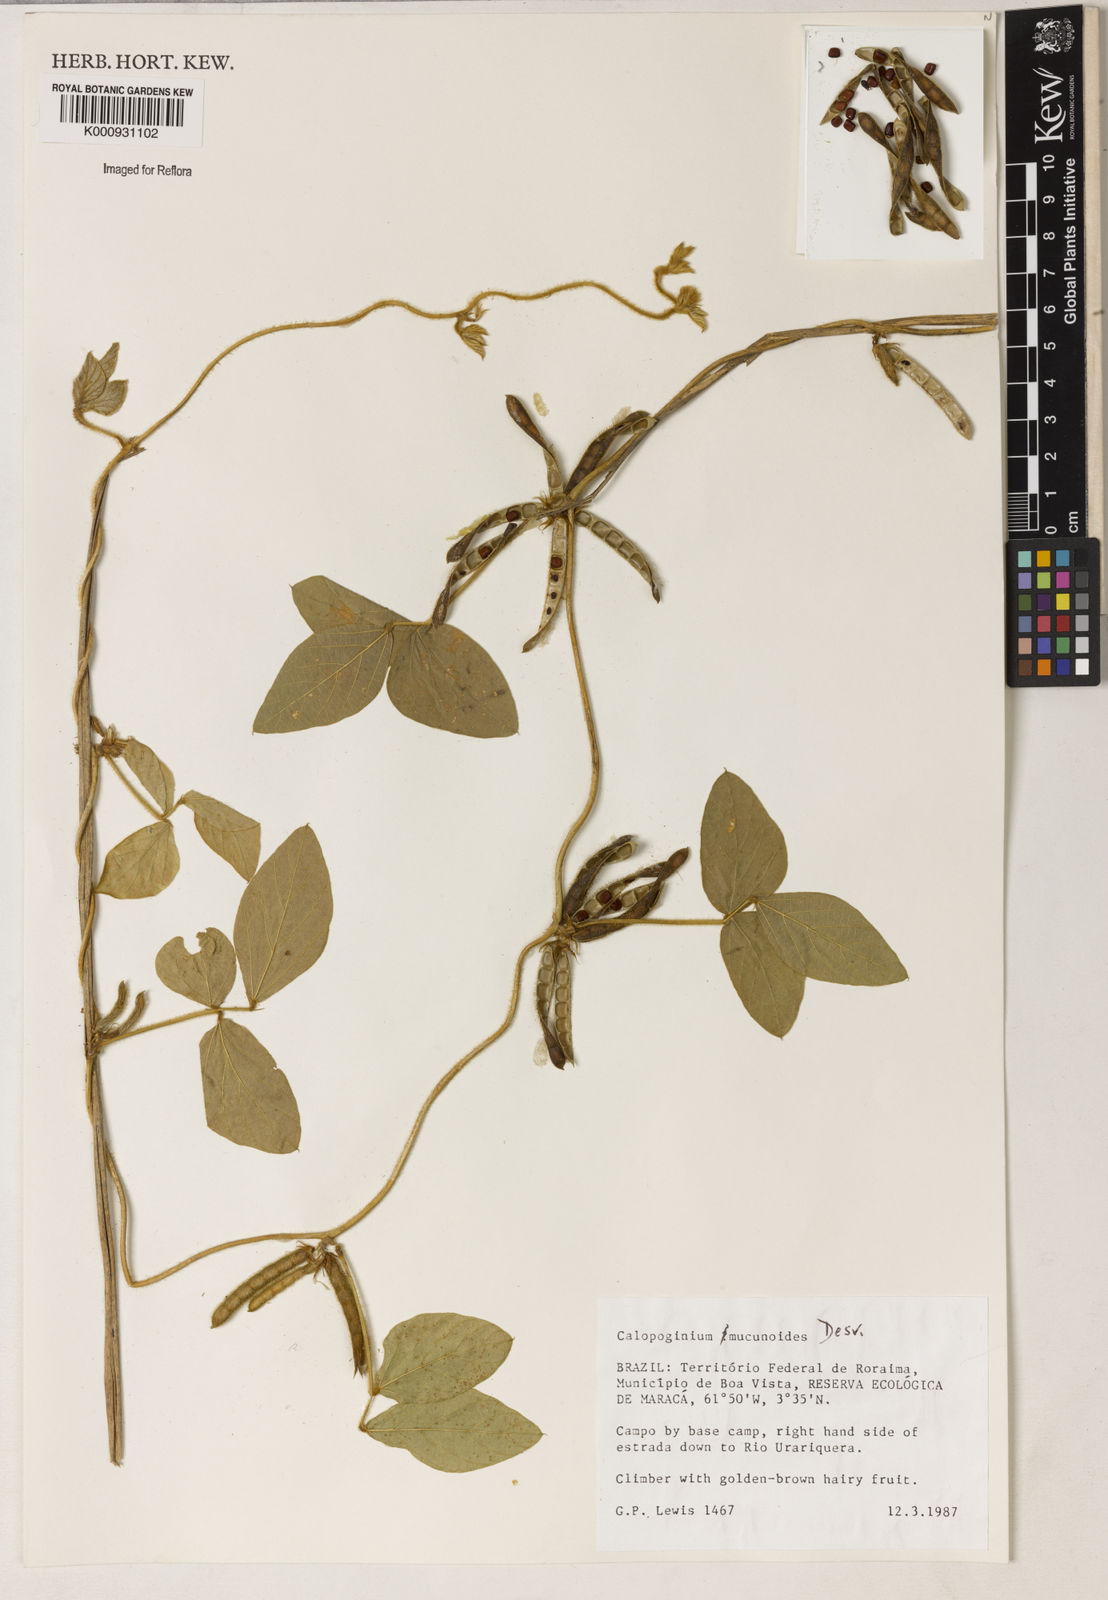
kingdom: Plantae
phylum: Tracheophyta
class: Magnoliopsida
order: Fabales
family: Fabaceae
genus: Calopogonium
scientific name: Calopogonium mucunoides
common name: Calopo
